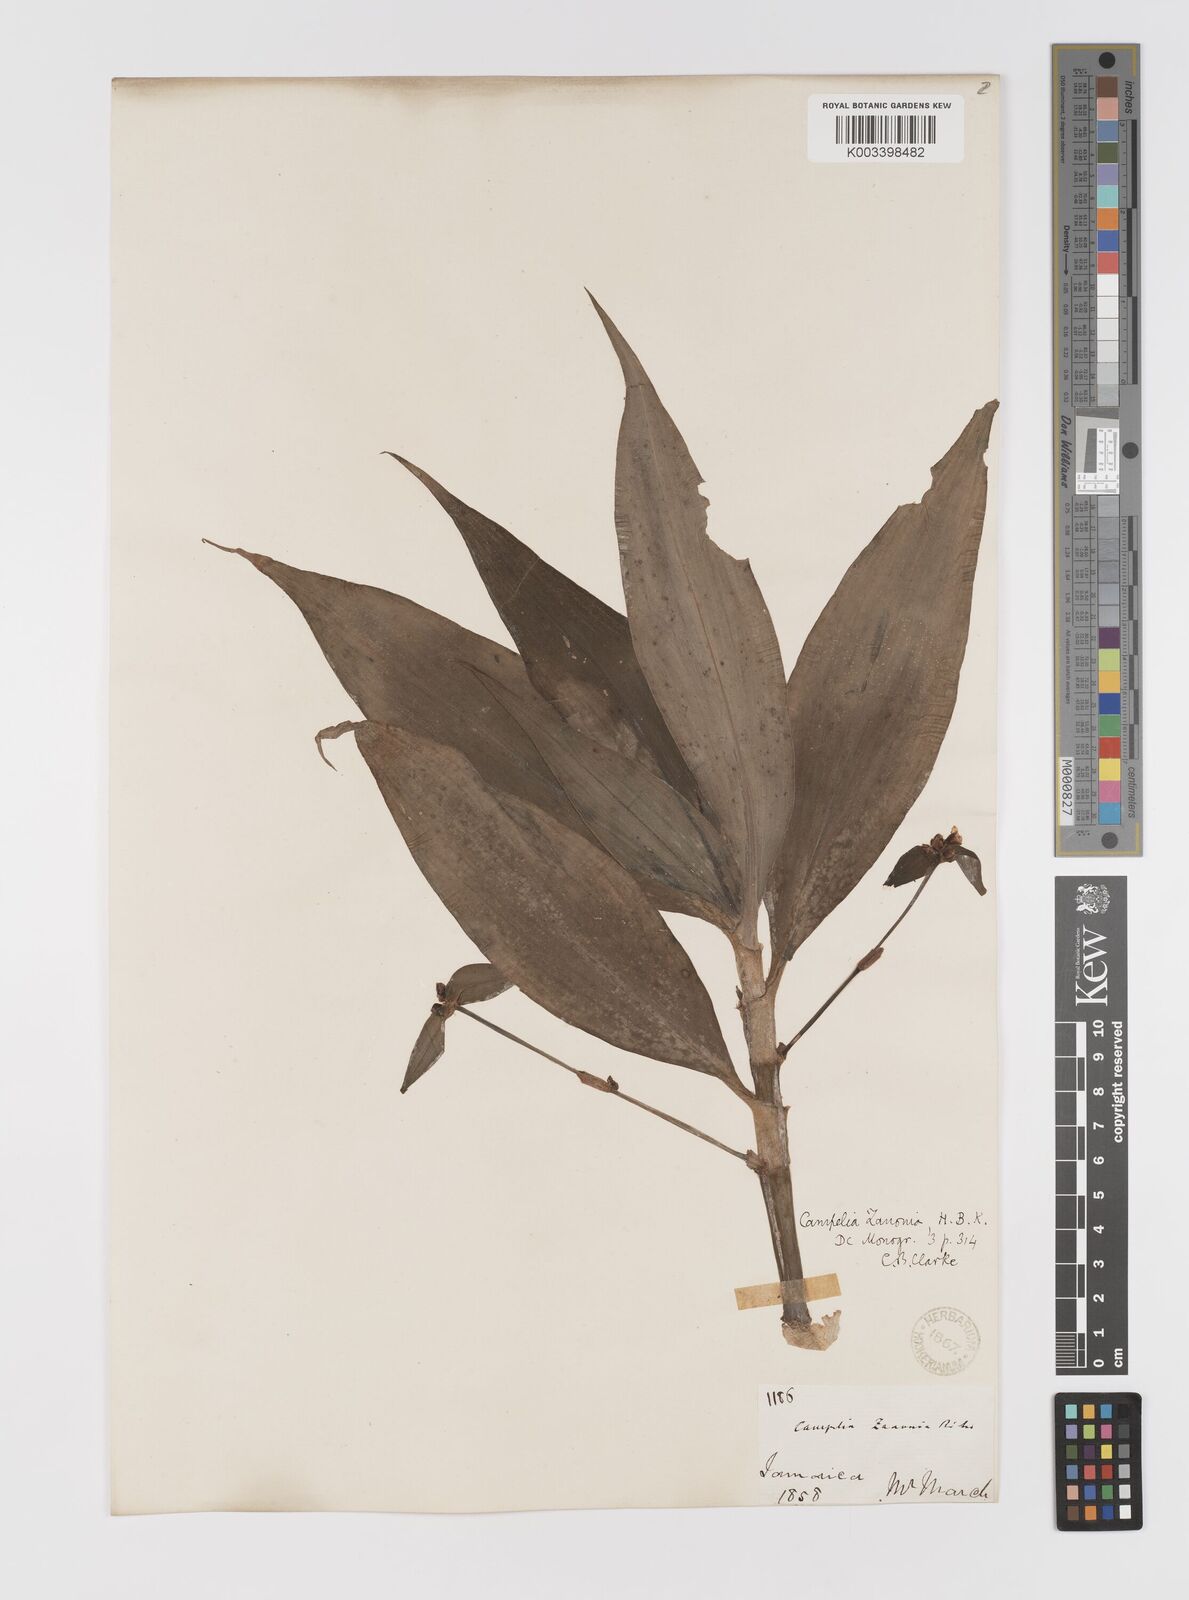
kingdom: Plantae
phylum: Tracheophyta
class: Liliopsida
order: Commelinales
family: Commelinaceae
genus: Tradescantia
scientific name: Tradescantia zanonia
